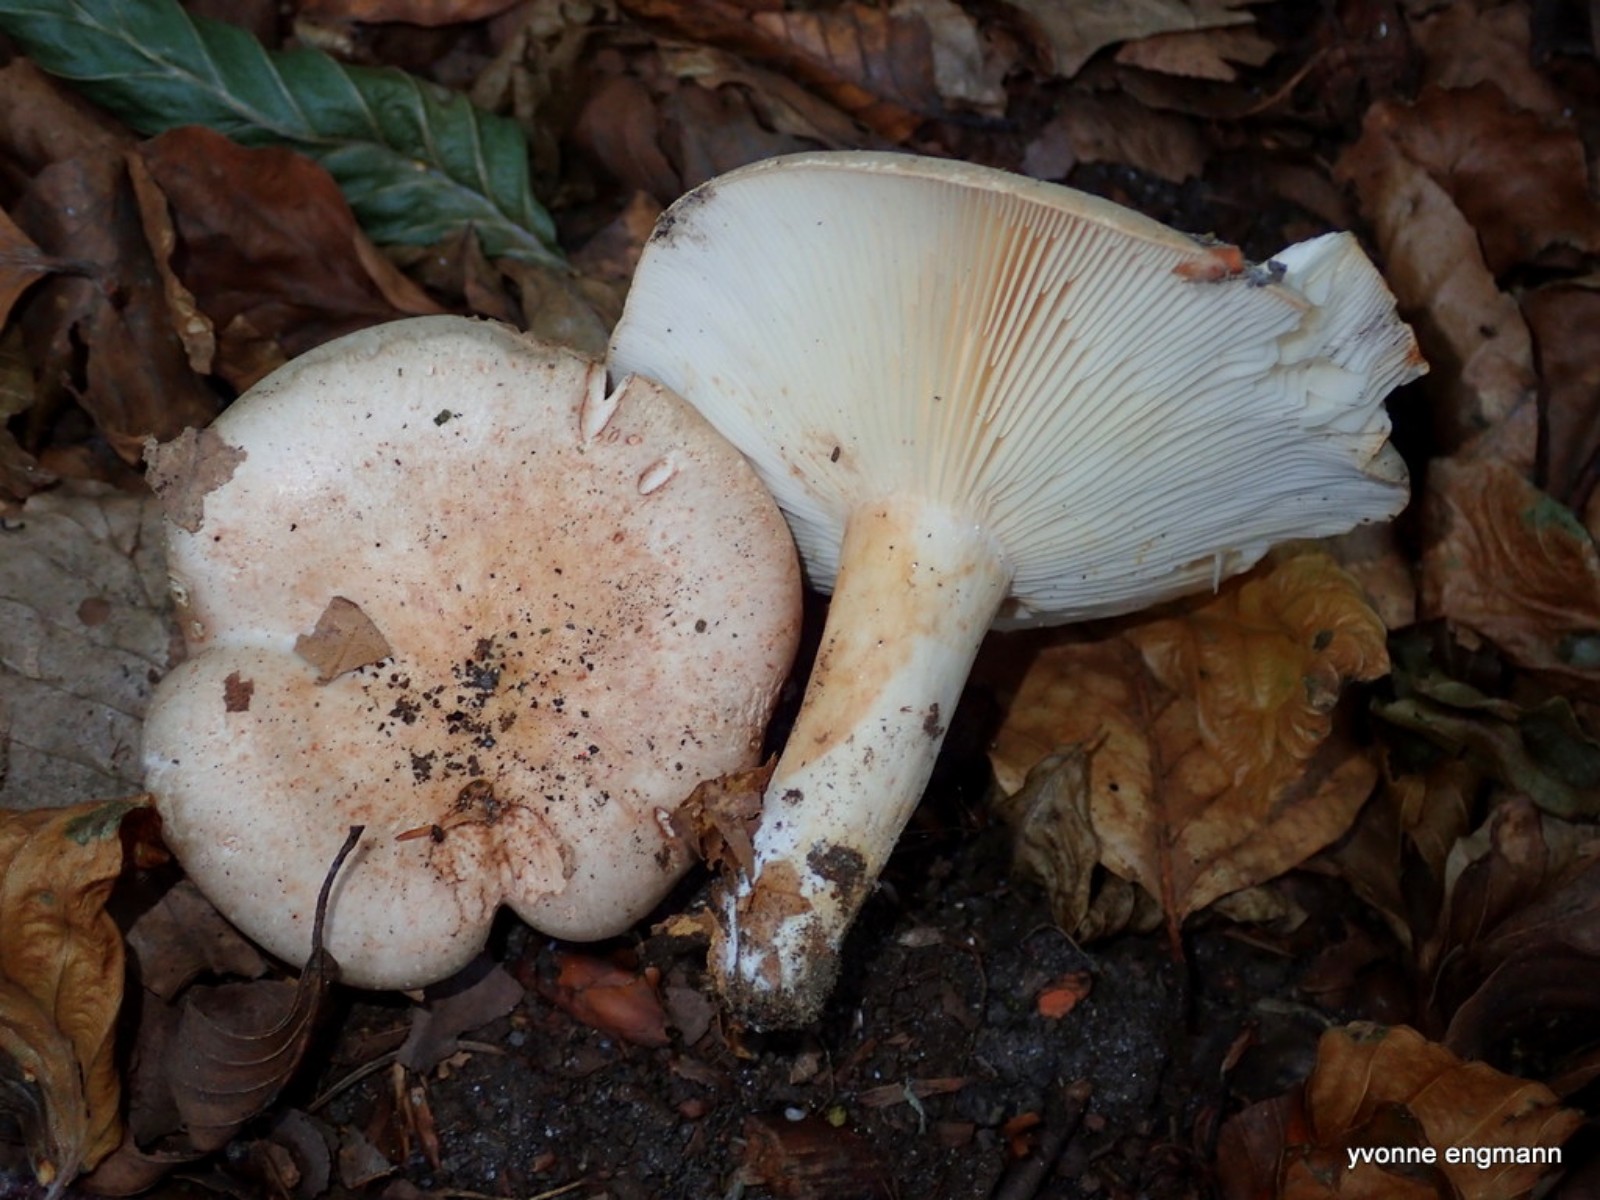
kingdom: Fungi
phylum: Basidiomycota
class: Agaricomycetes
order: Russulales
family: Russulaceae
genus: Lactarius
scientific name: Lactarius pallidus
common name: bleg mælkehat
